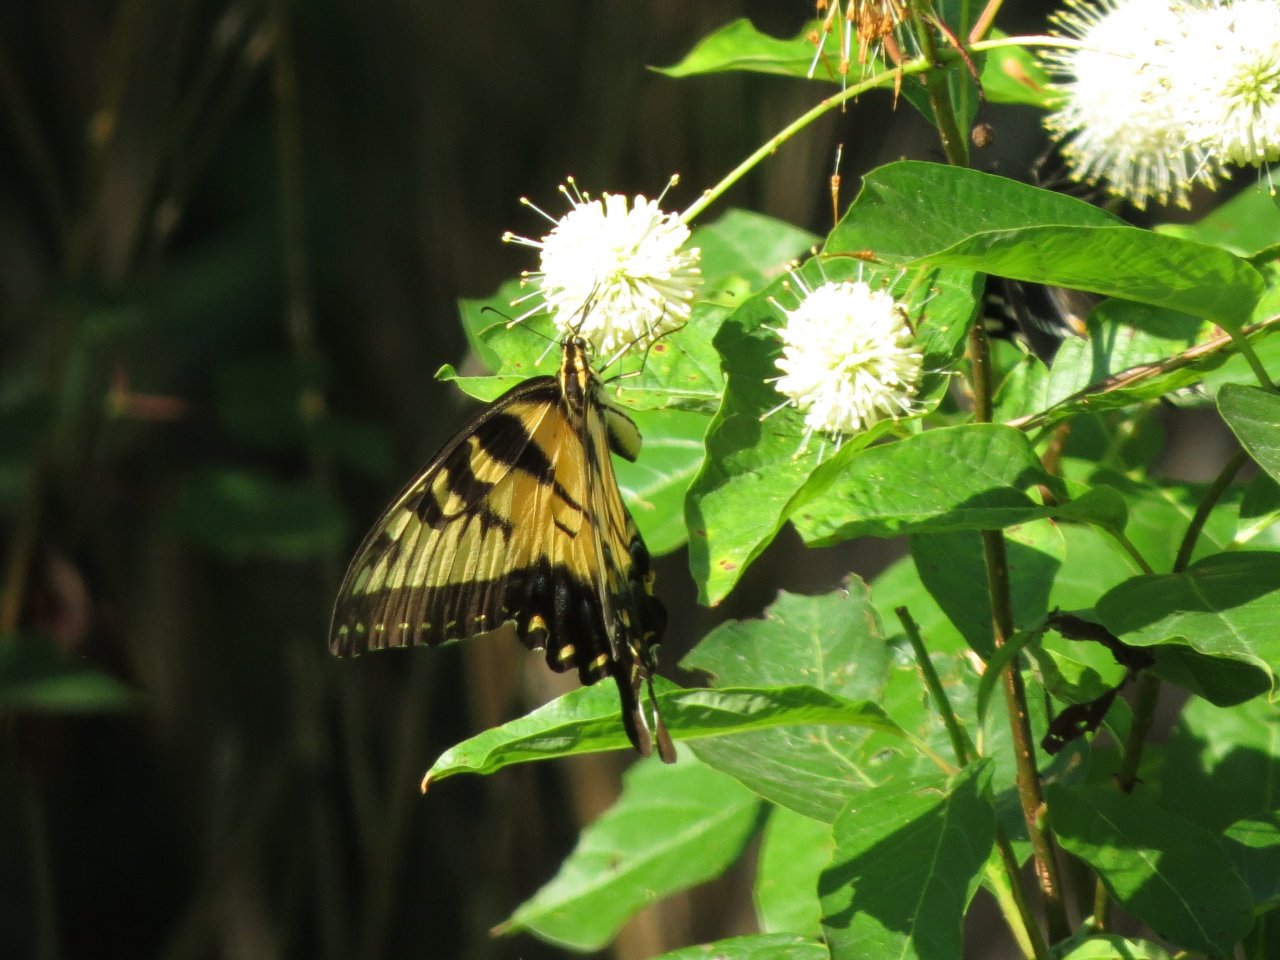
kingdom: Animalia
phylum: Arthropoda
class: Insecta
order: Lepidoptera
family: Papilionidae
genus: Pterourus
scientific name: Pterourus glaucus
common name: Eastern Tiger Swallowtail
